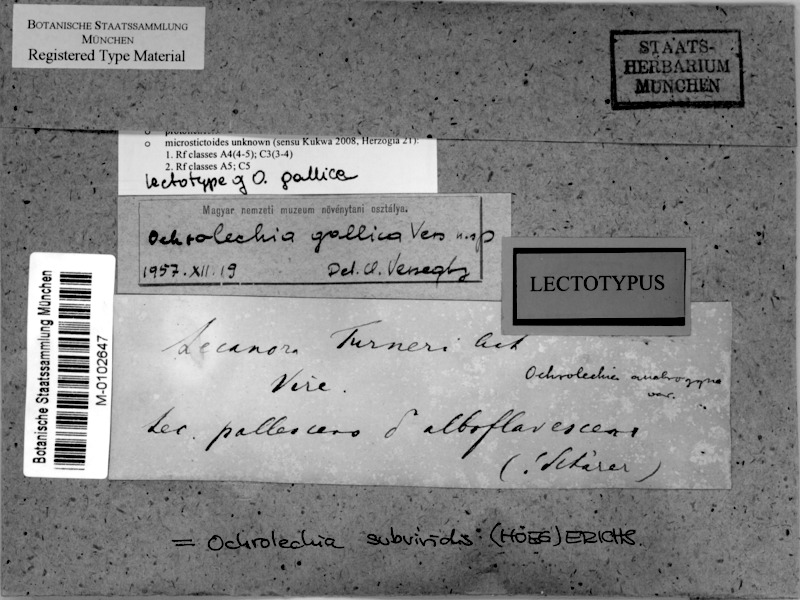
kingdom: Fungi
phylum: Ascomycota
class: Lecanoromycetes
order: Pertusariales
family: Ochrolechiaceae
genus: Ochrolechia
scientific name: Ochrolechia subviridis
